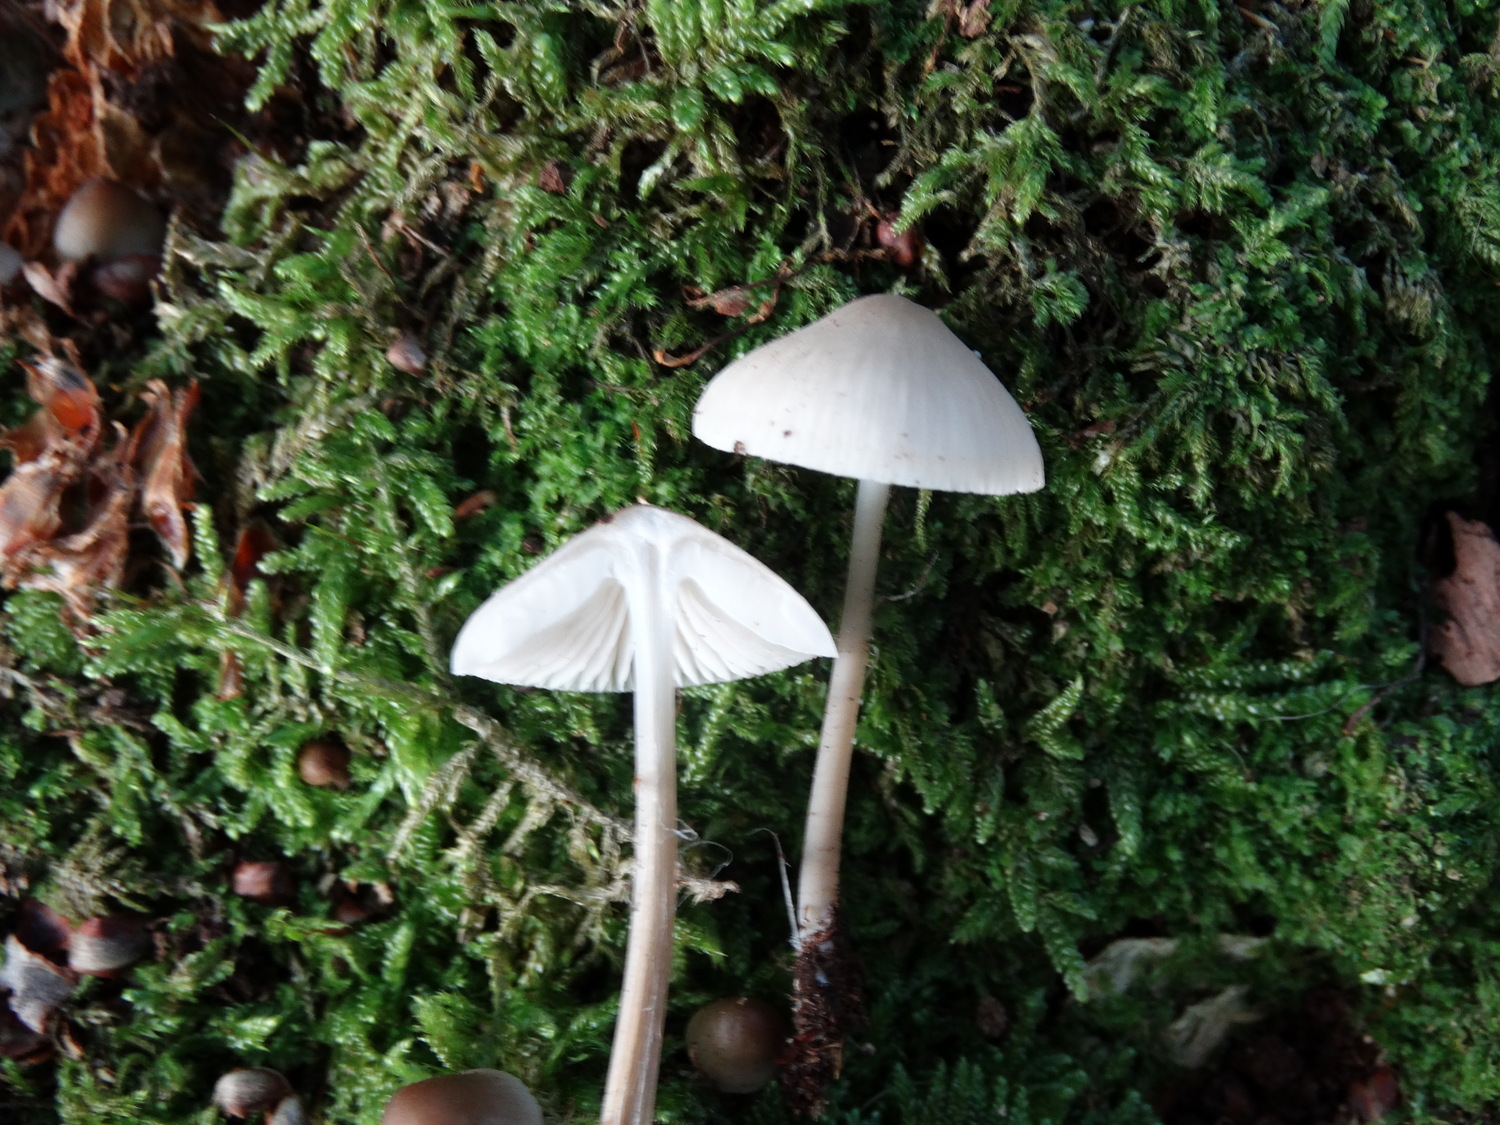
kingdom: Fungi
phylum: Basidiomycota
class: Agaricomycetes
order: Agaricales
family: Mycenaceae
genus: Mycena
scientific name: Mycena galericulata
